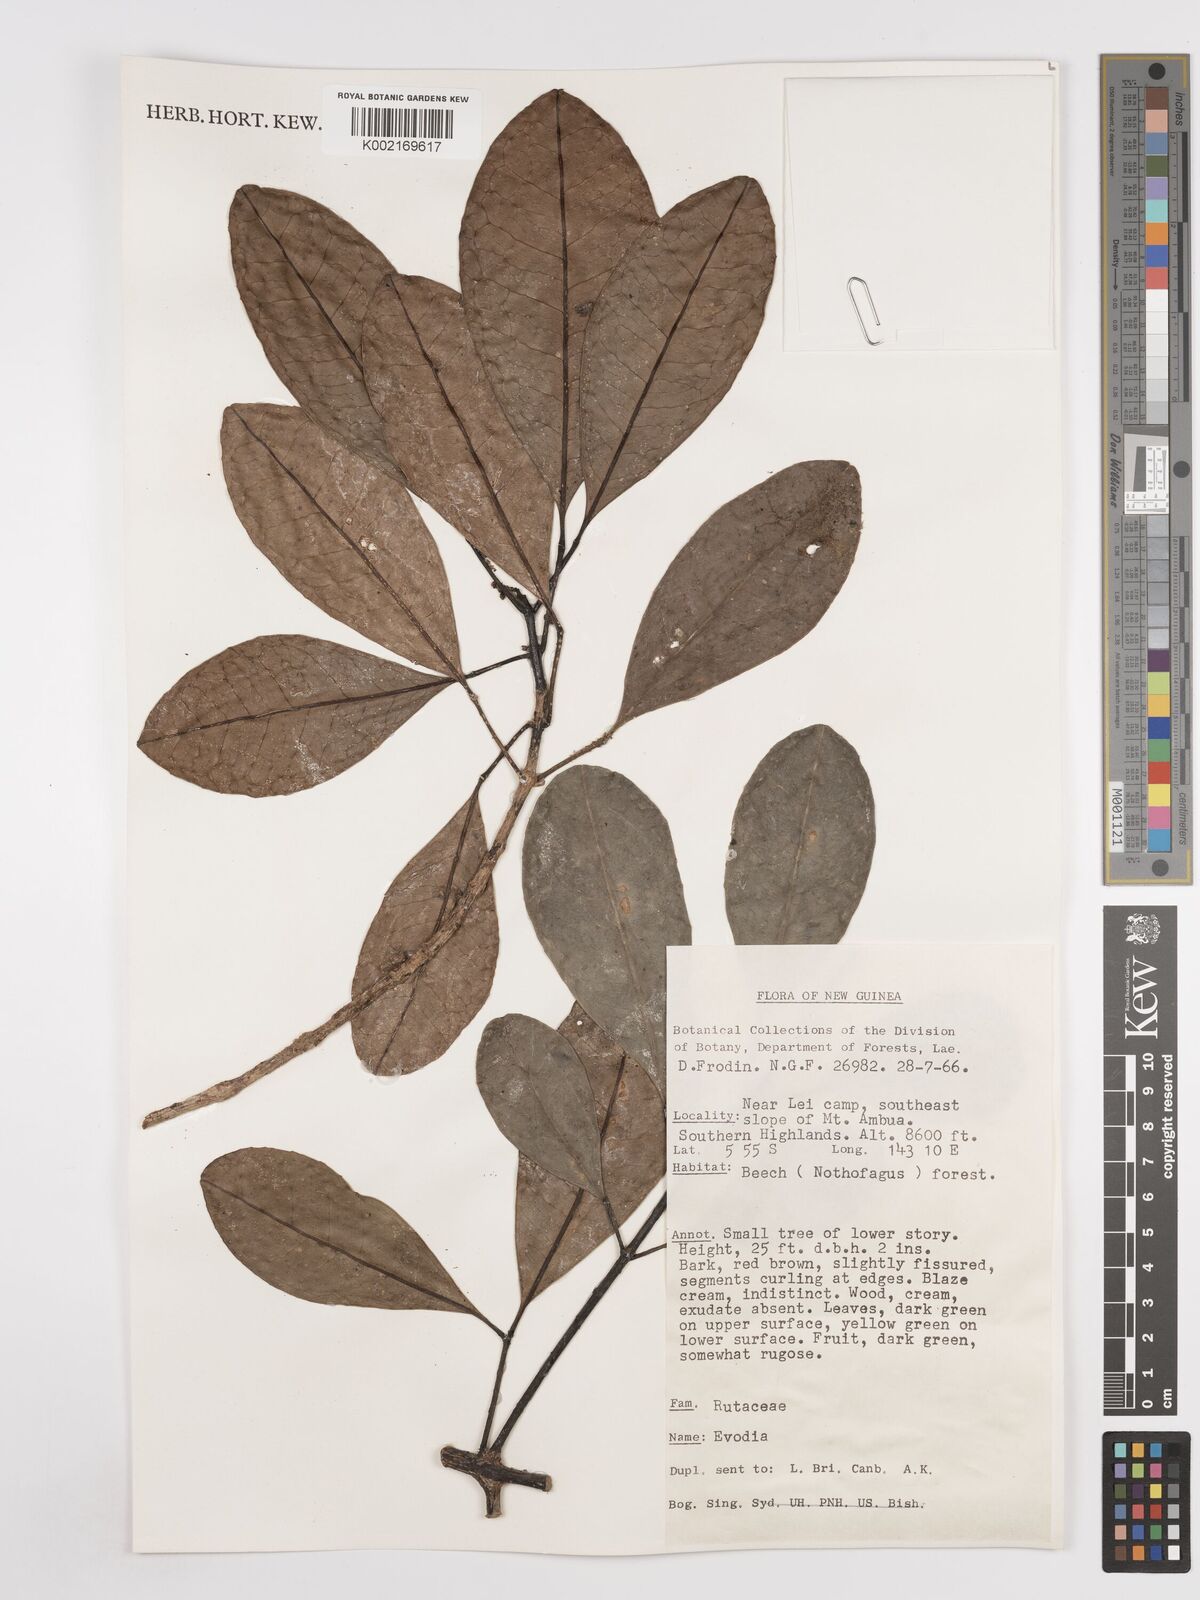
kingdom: Plantae
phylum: Tracheophyta
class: Magnoliopsida
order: Sapindales
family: Rutaceae
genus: Euodia
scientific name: Euodia
